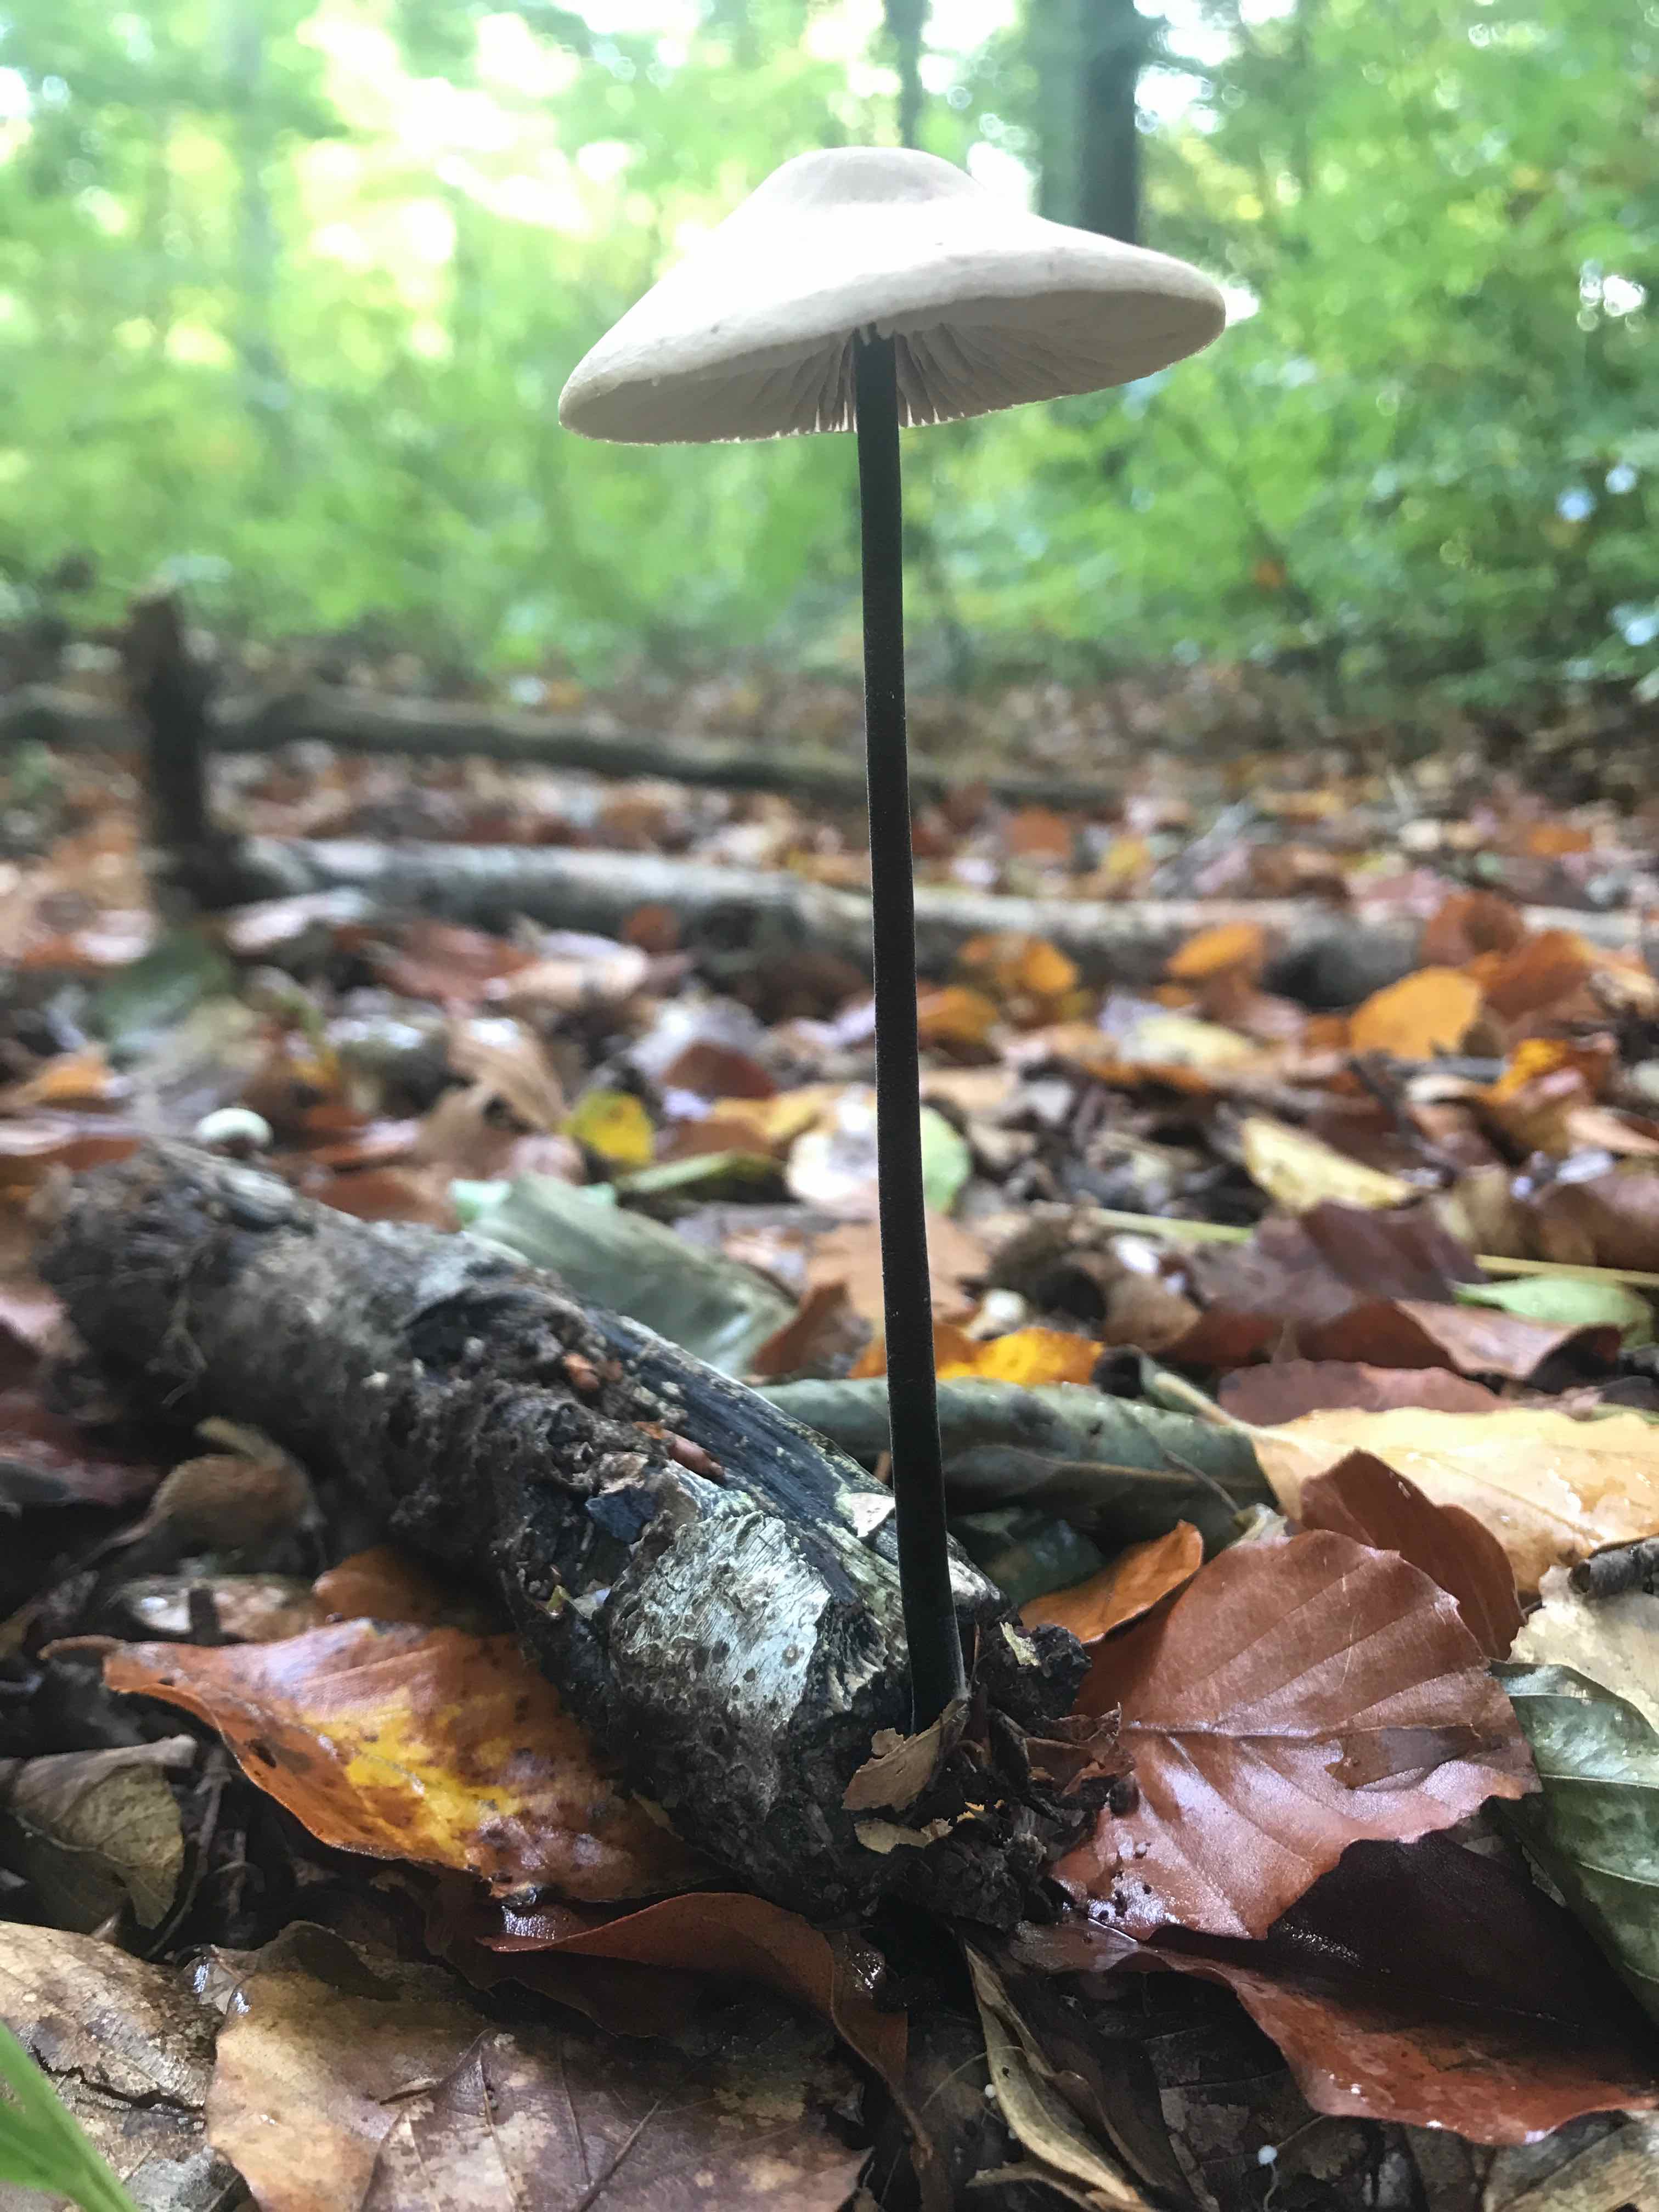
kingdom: Fungi
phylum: Basidiomycota
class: Agaricomycetes
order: Agaricales
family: Omphalotaceae
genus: Mycetinis
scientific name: Mycetinis alliaceus
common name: stor løghat
